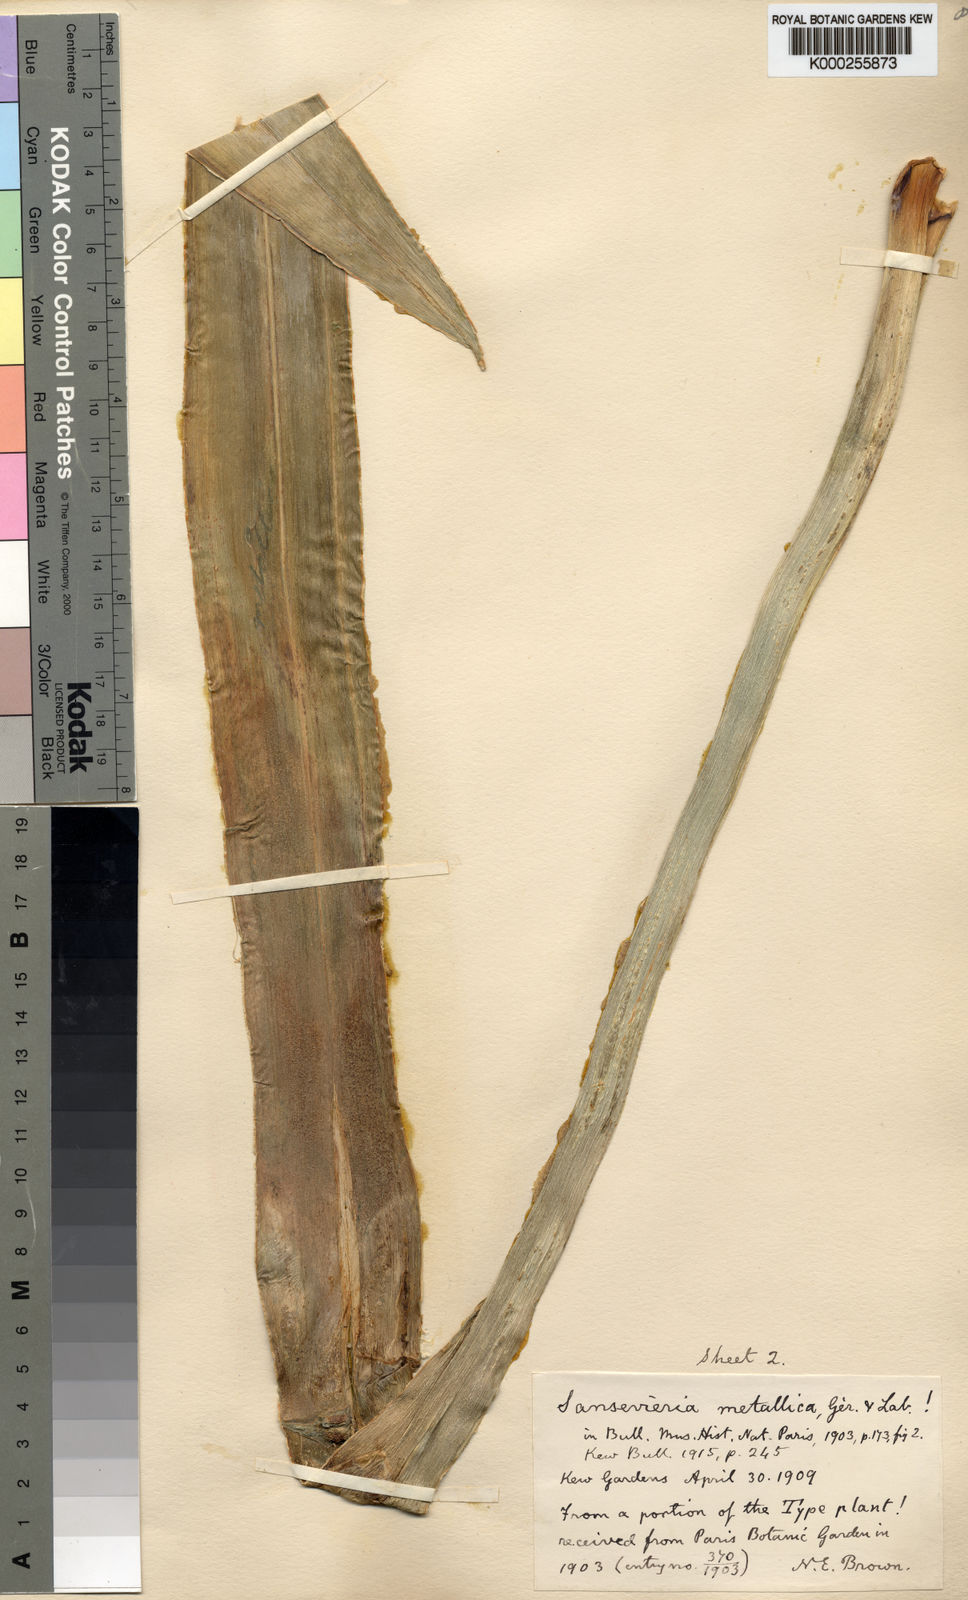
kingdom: Plantae
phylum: Tracheophyta
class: Liliopsida
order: Asparagales
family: Asparagaceae
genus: Dracaena
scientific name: Dracaena zebra
